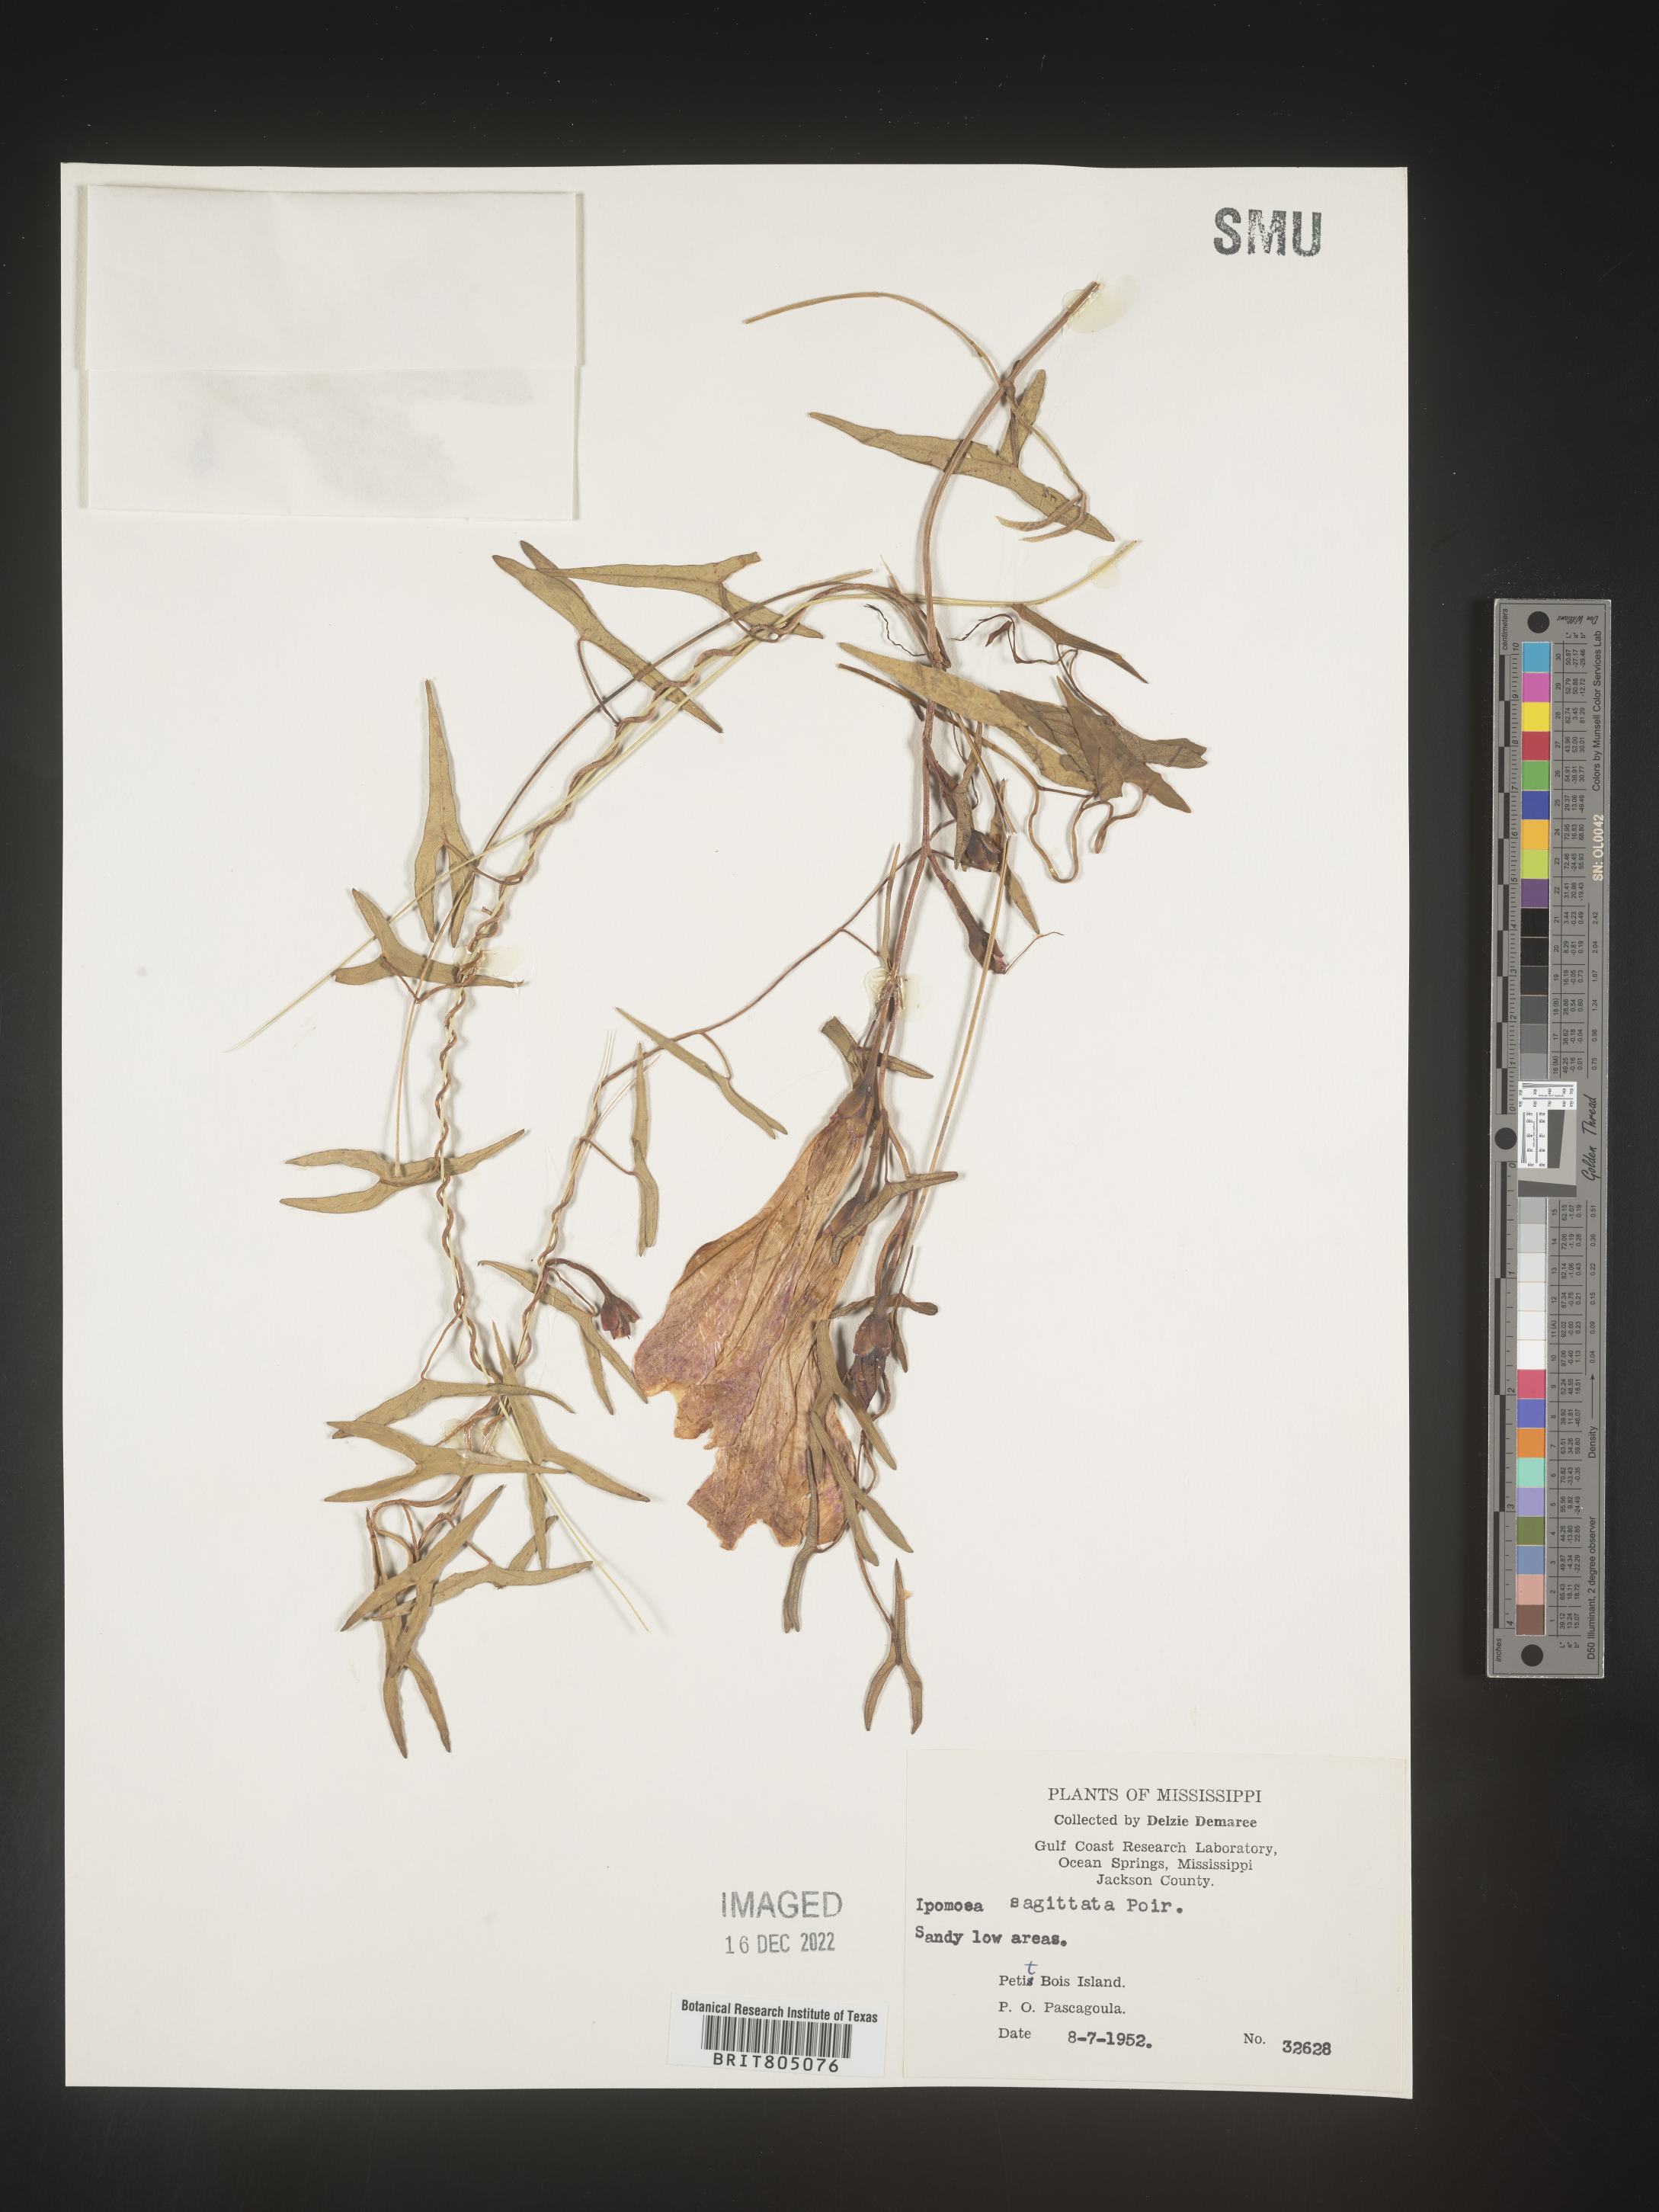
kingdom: Plantae
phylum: Tracheophyta
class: Magnoliopsida
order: Solanales
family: Convolvulaceae
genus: Ipomoea
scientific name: Ipomoea sinensis
